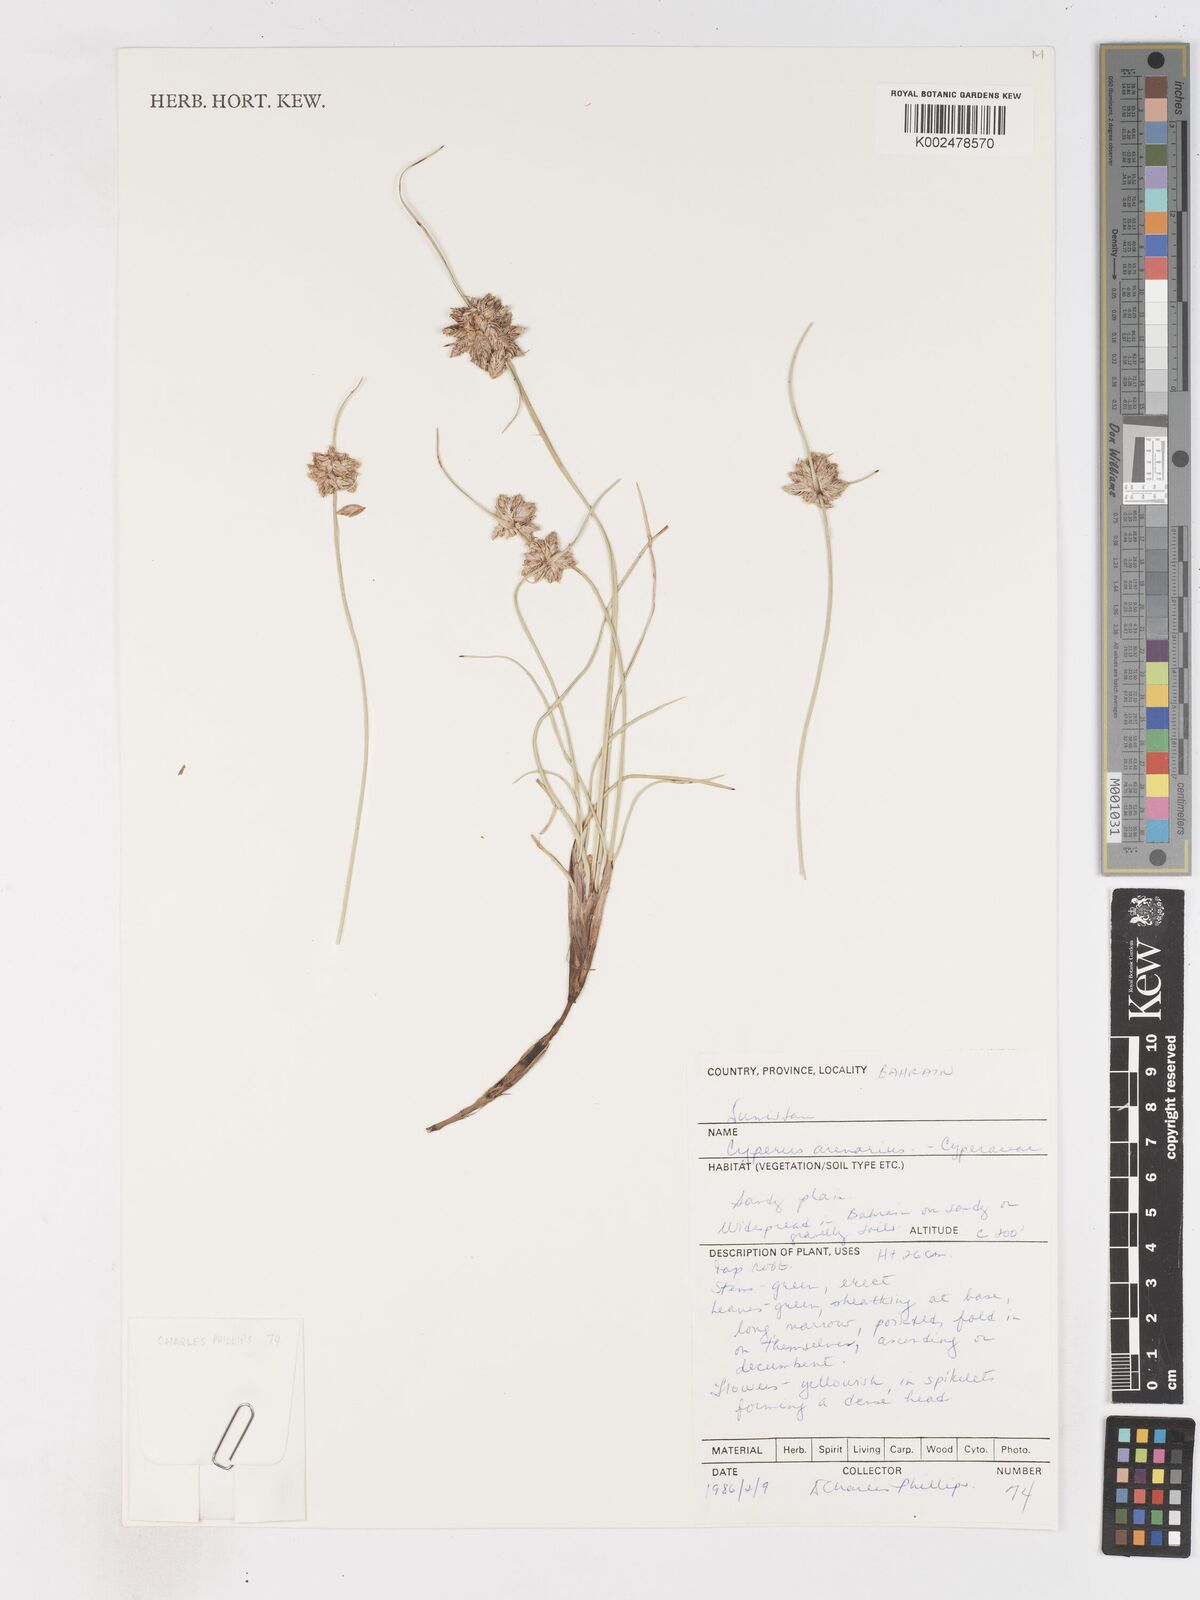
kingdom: Plantae
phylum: Tracheophyta
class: Liliopsida
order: Poales
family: Cyperaceae
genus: Cyperus
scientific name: Cyperus arenarius
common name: Dwarf sedge
